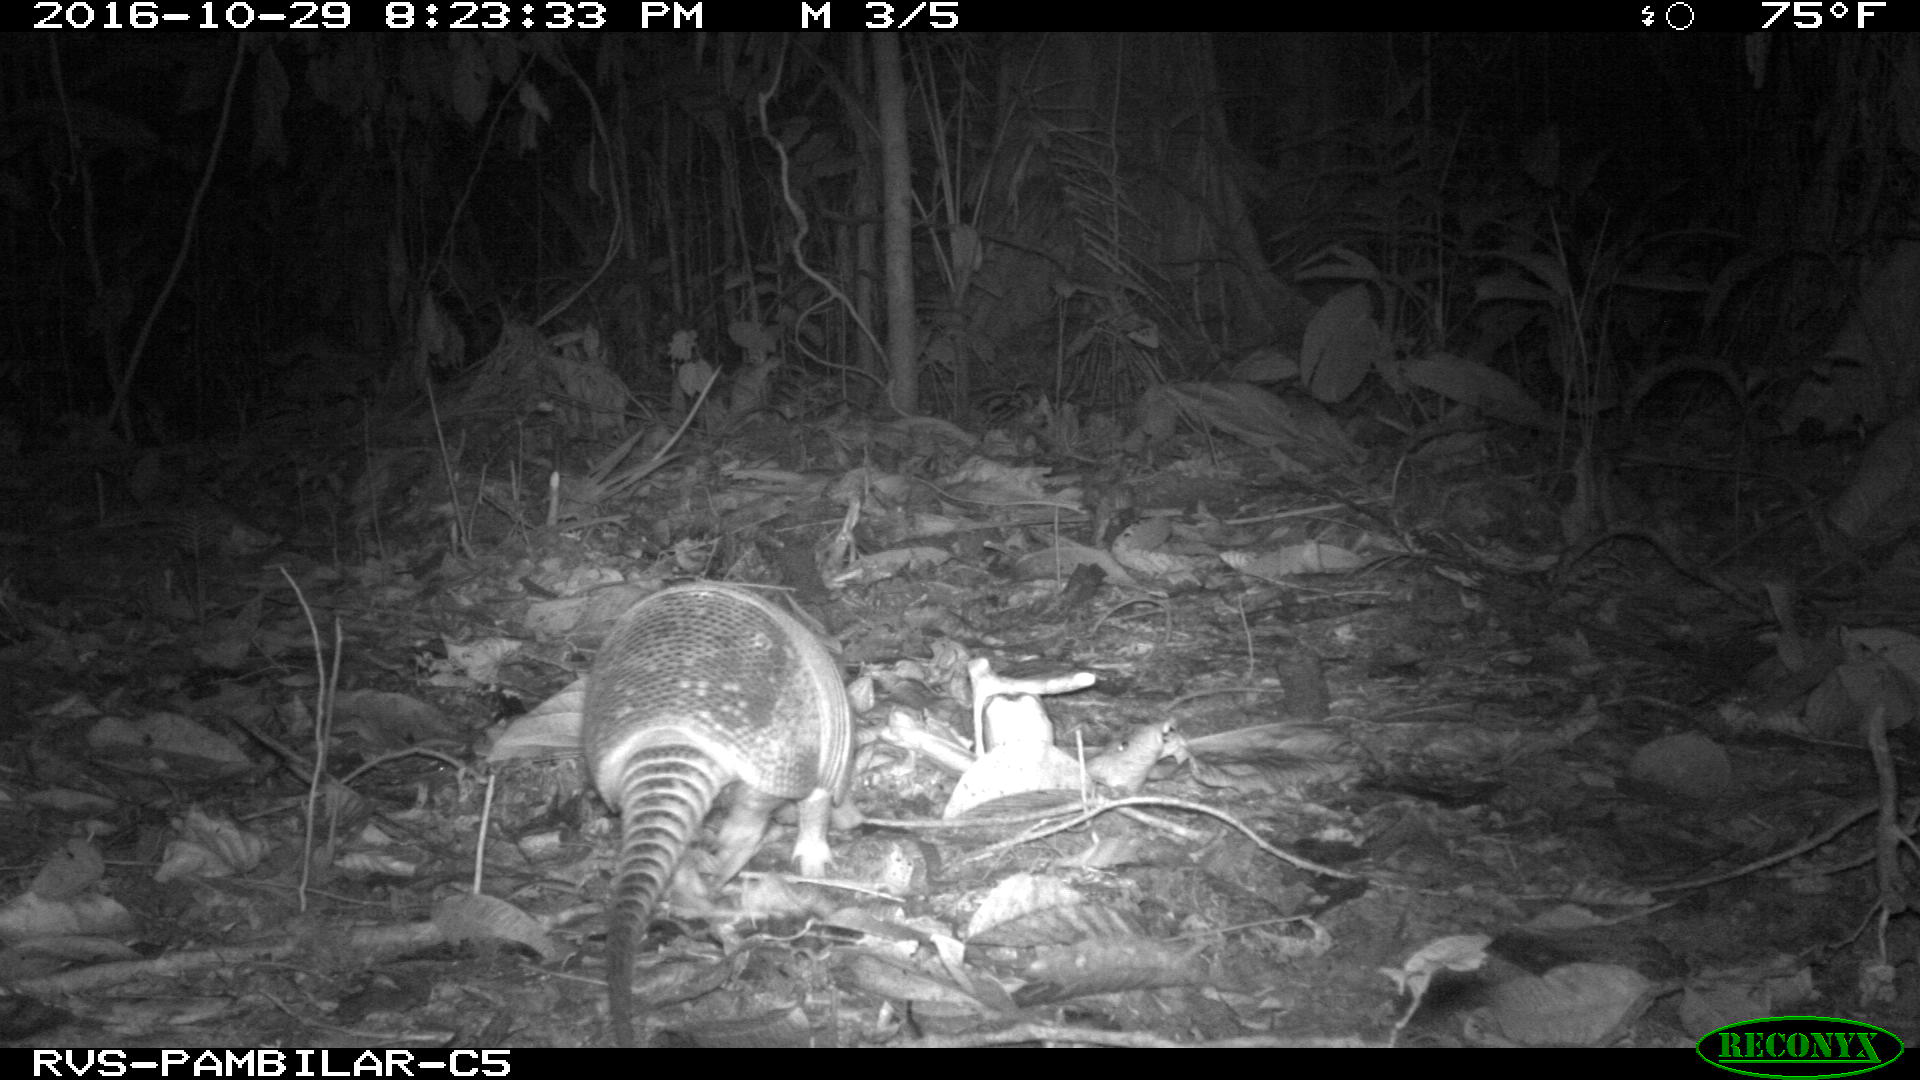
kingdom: Animalia
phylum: Chordata
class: Mammalia
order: Cingulata
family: Dasypodidae
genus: Dasypus
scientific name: Dasypus novemcinctus
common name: Nine-banded armadillo
